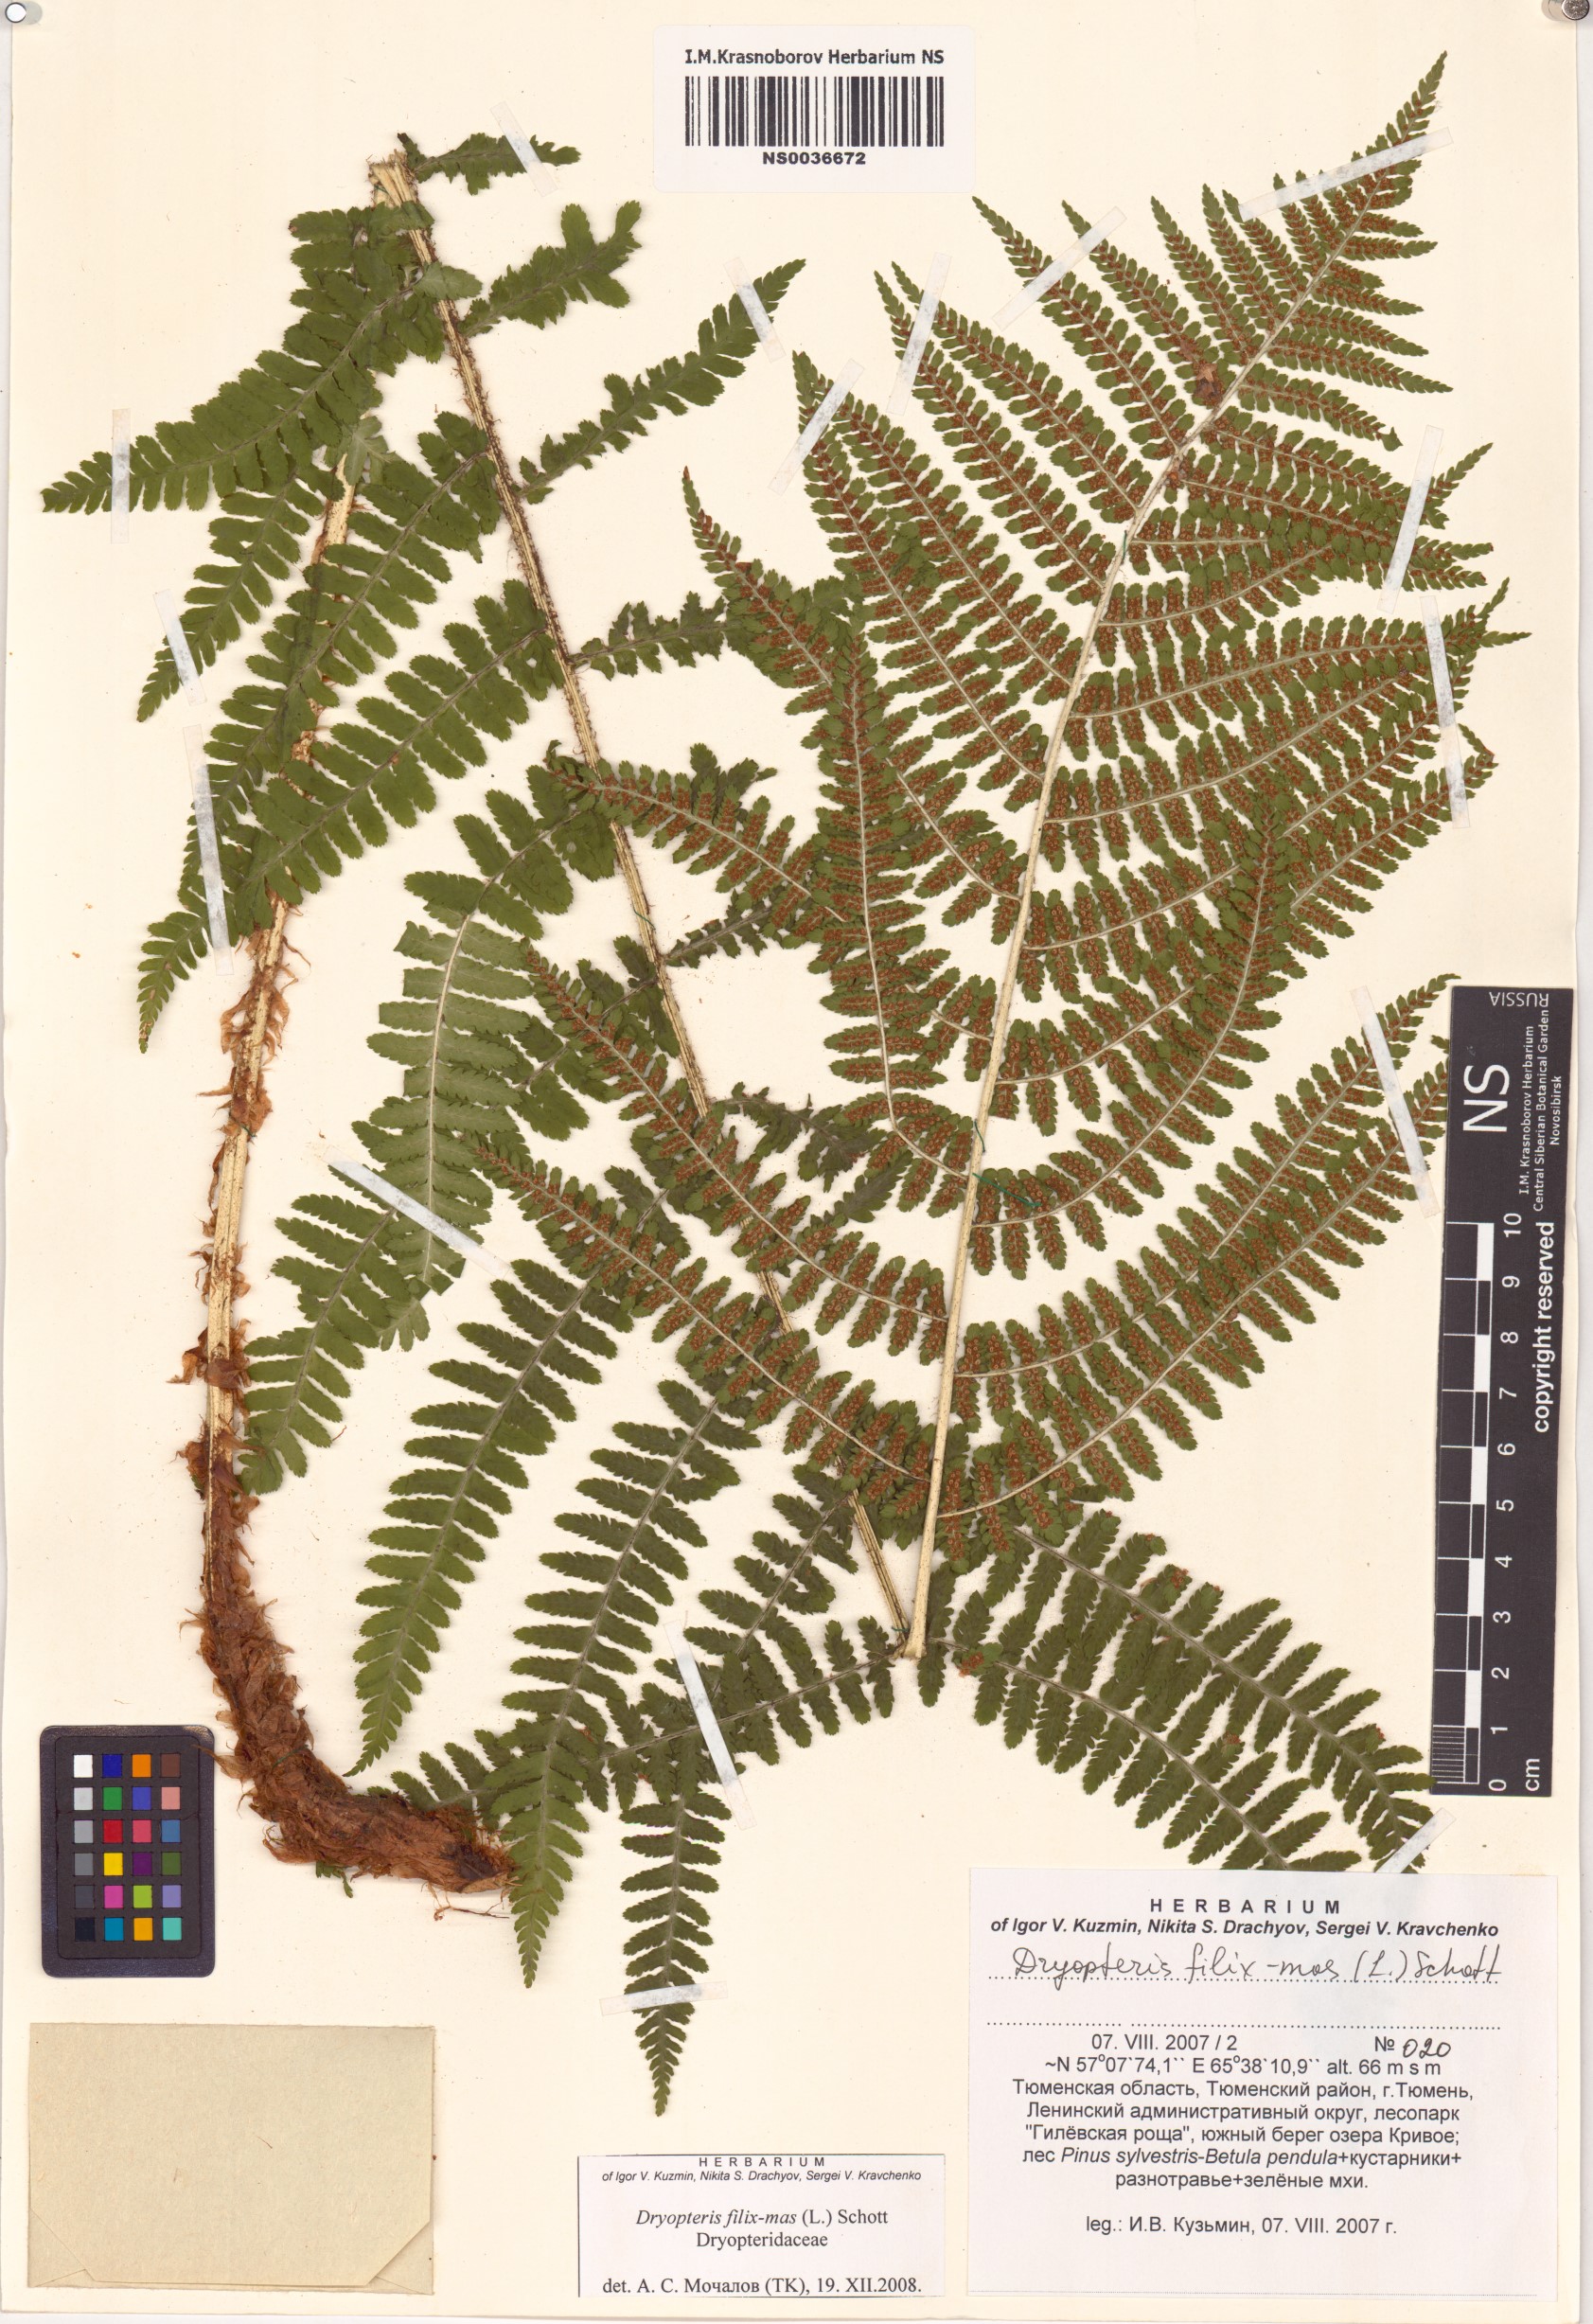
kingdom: Plantae
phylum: Tracheophyta
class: Polypodiopsida
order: Polypodiales
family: Dryopteridaceae
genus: Dryopteris
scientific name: Dryopteris filix-mas
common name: Male fern
